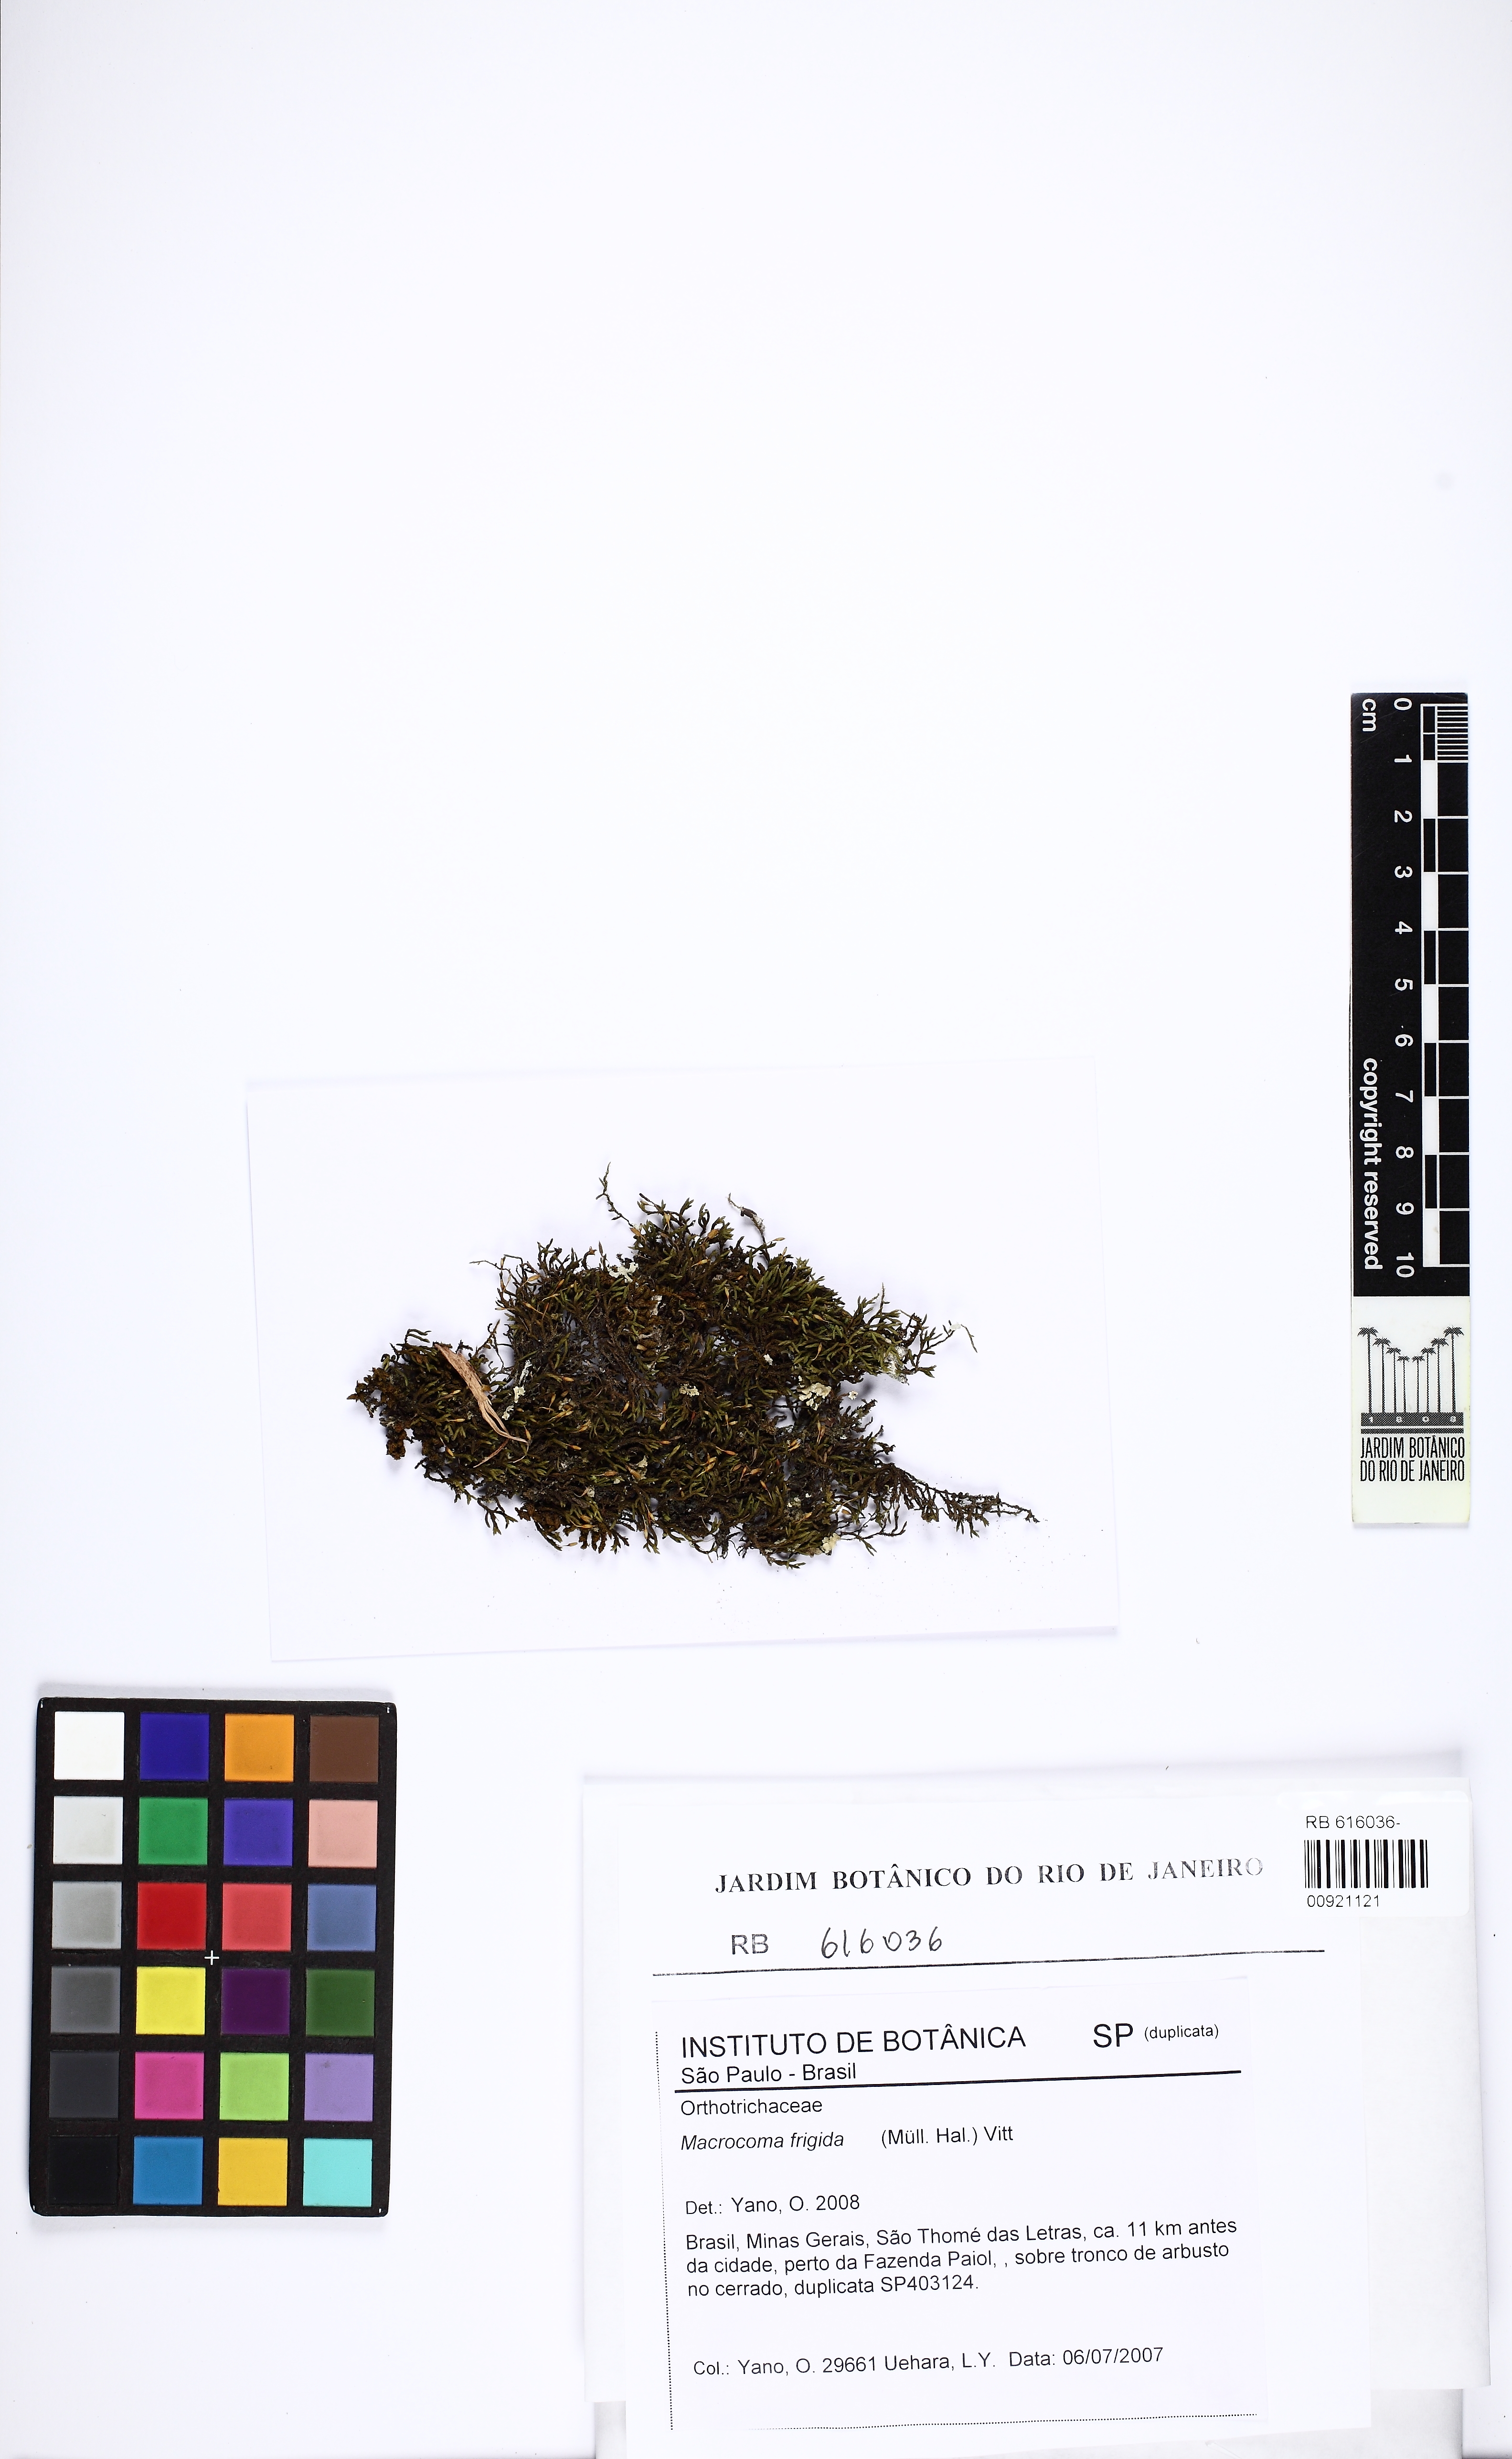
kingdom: Plantae
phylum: Bryophyta
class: Bryopsida
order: Orthotrichales
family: Orthotrichaceae
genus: Macrocoma
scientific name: Macrocoma frigida
